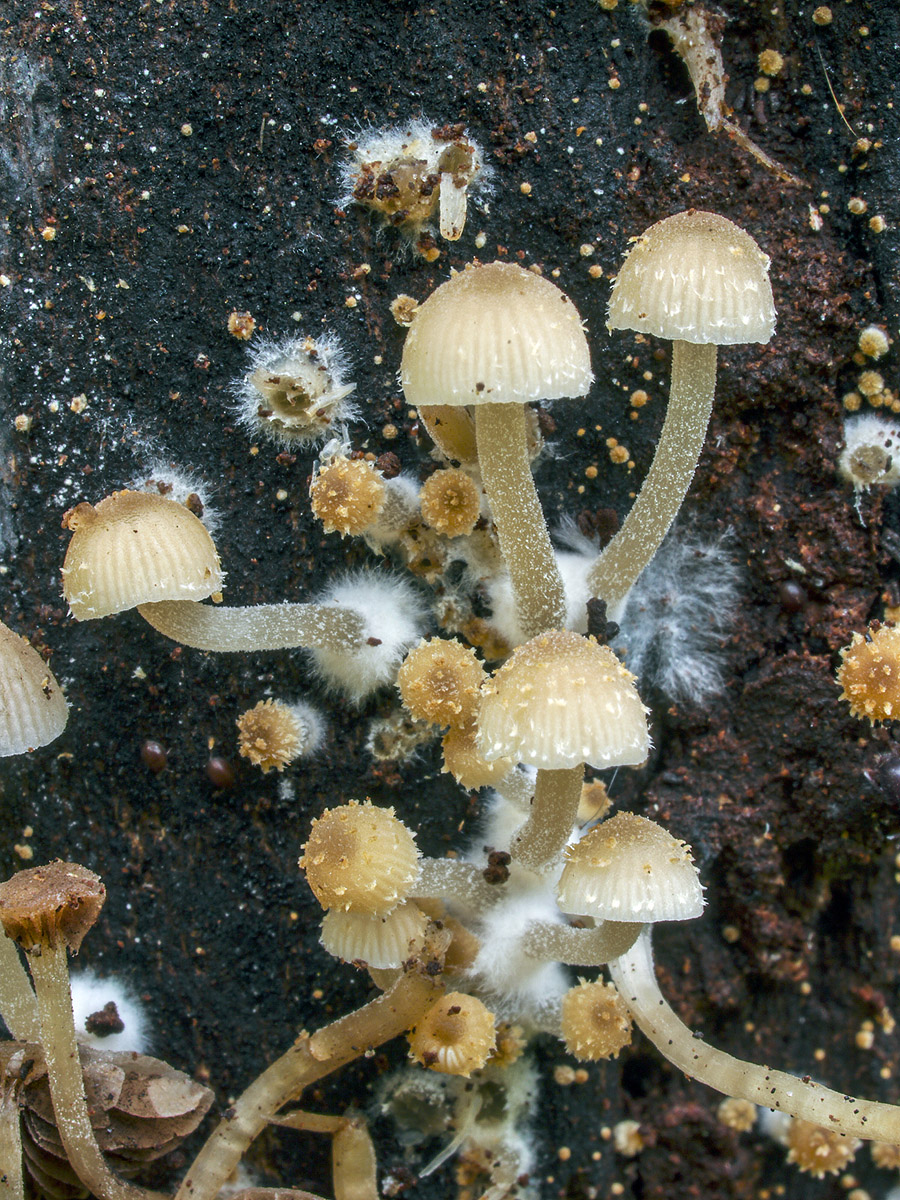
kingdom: Fungi
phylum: Basidiomycota
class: Agaricomycetes
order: Agaricales
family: Psathyrellaceae
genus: Psathyrella
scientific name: Psathyrella pygmaea
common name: dværg-mørkhat
